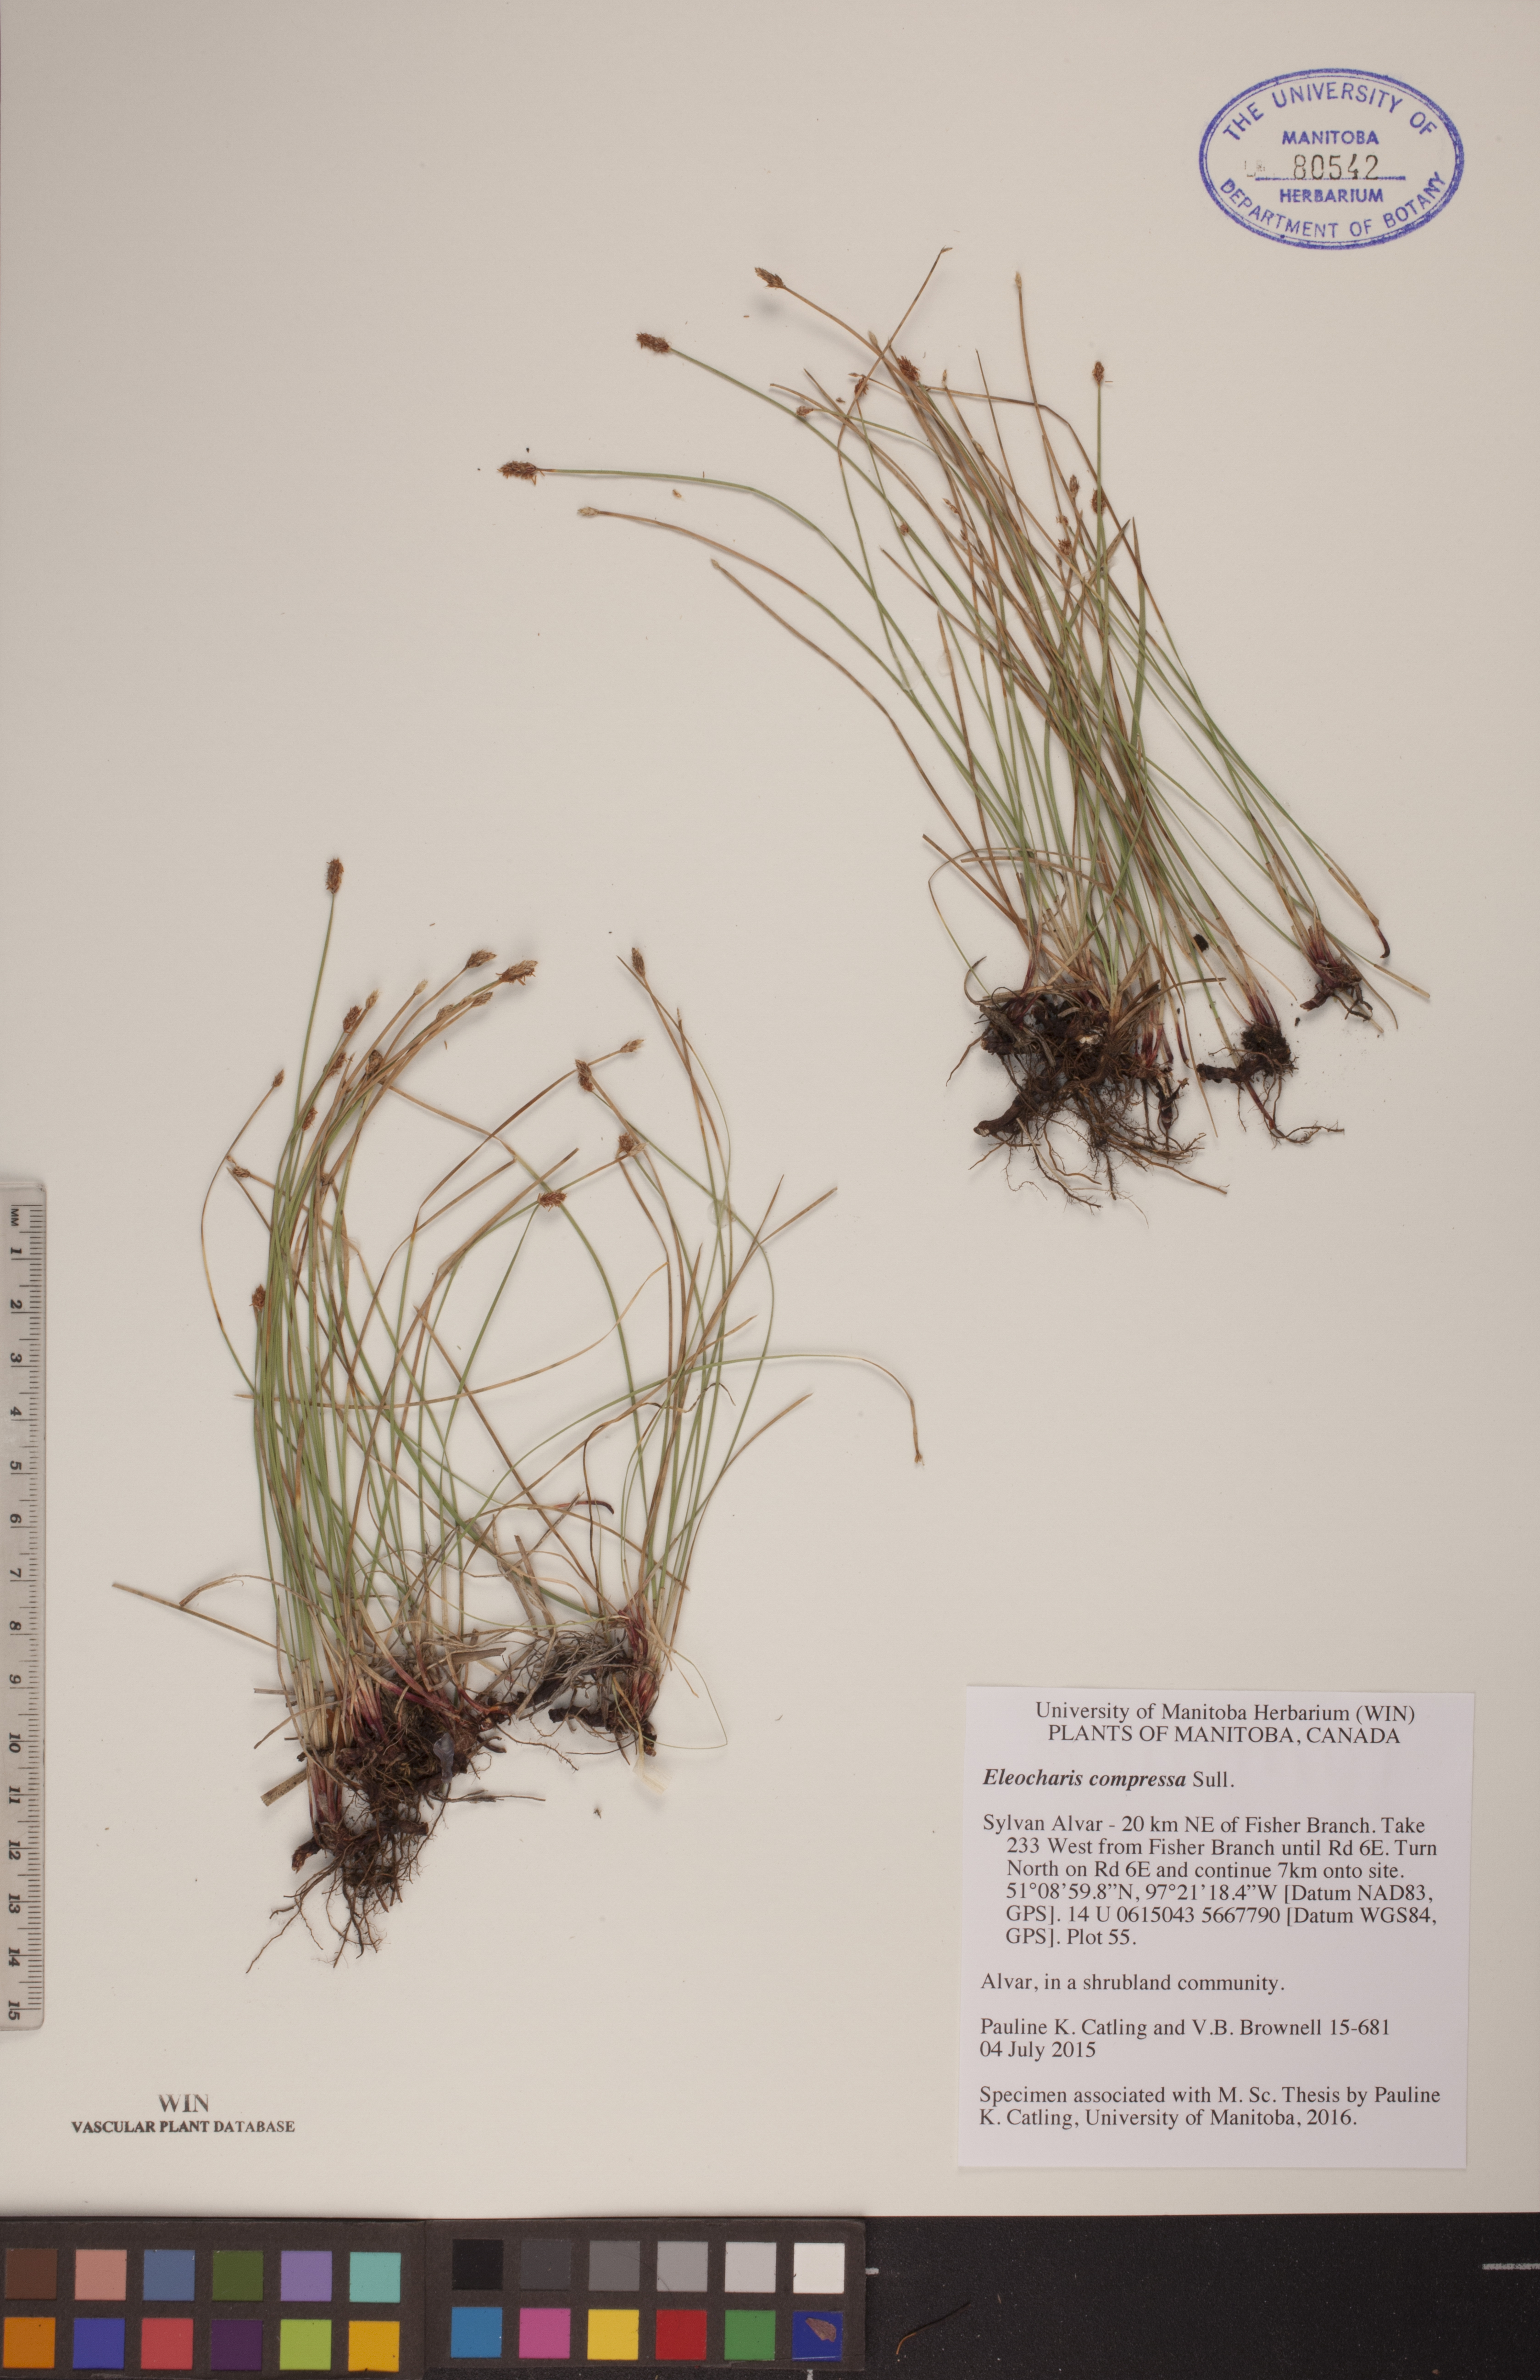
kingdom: Plantae
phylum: Tracheophyta
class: Liliopsida
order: Poales
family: Cyperaceae
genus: Eleocharis
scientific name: Eleocharis compressa
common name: Flat-stem spike-rush
